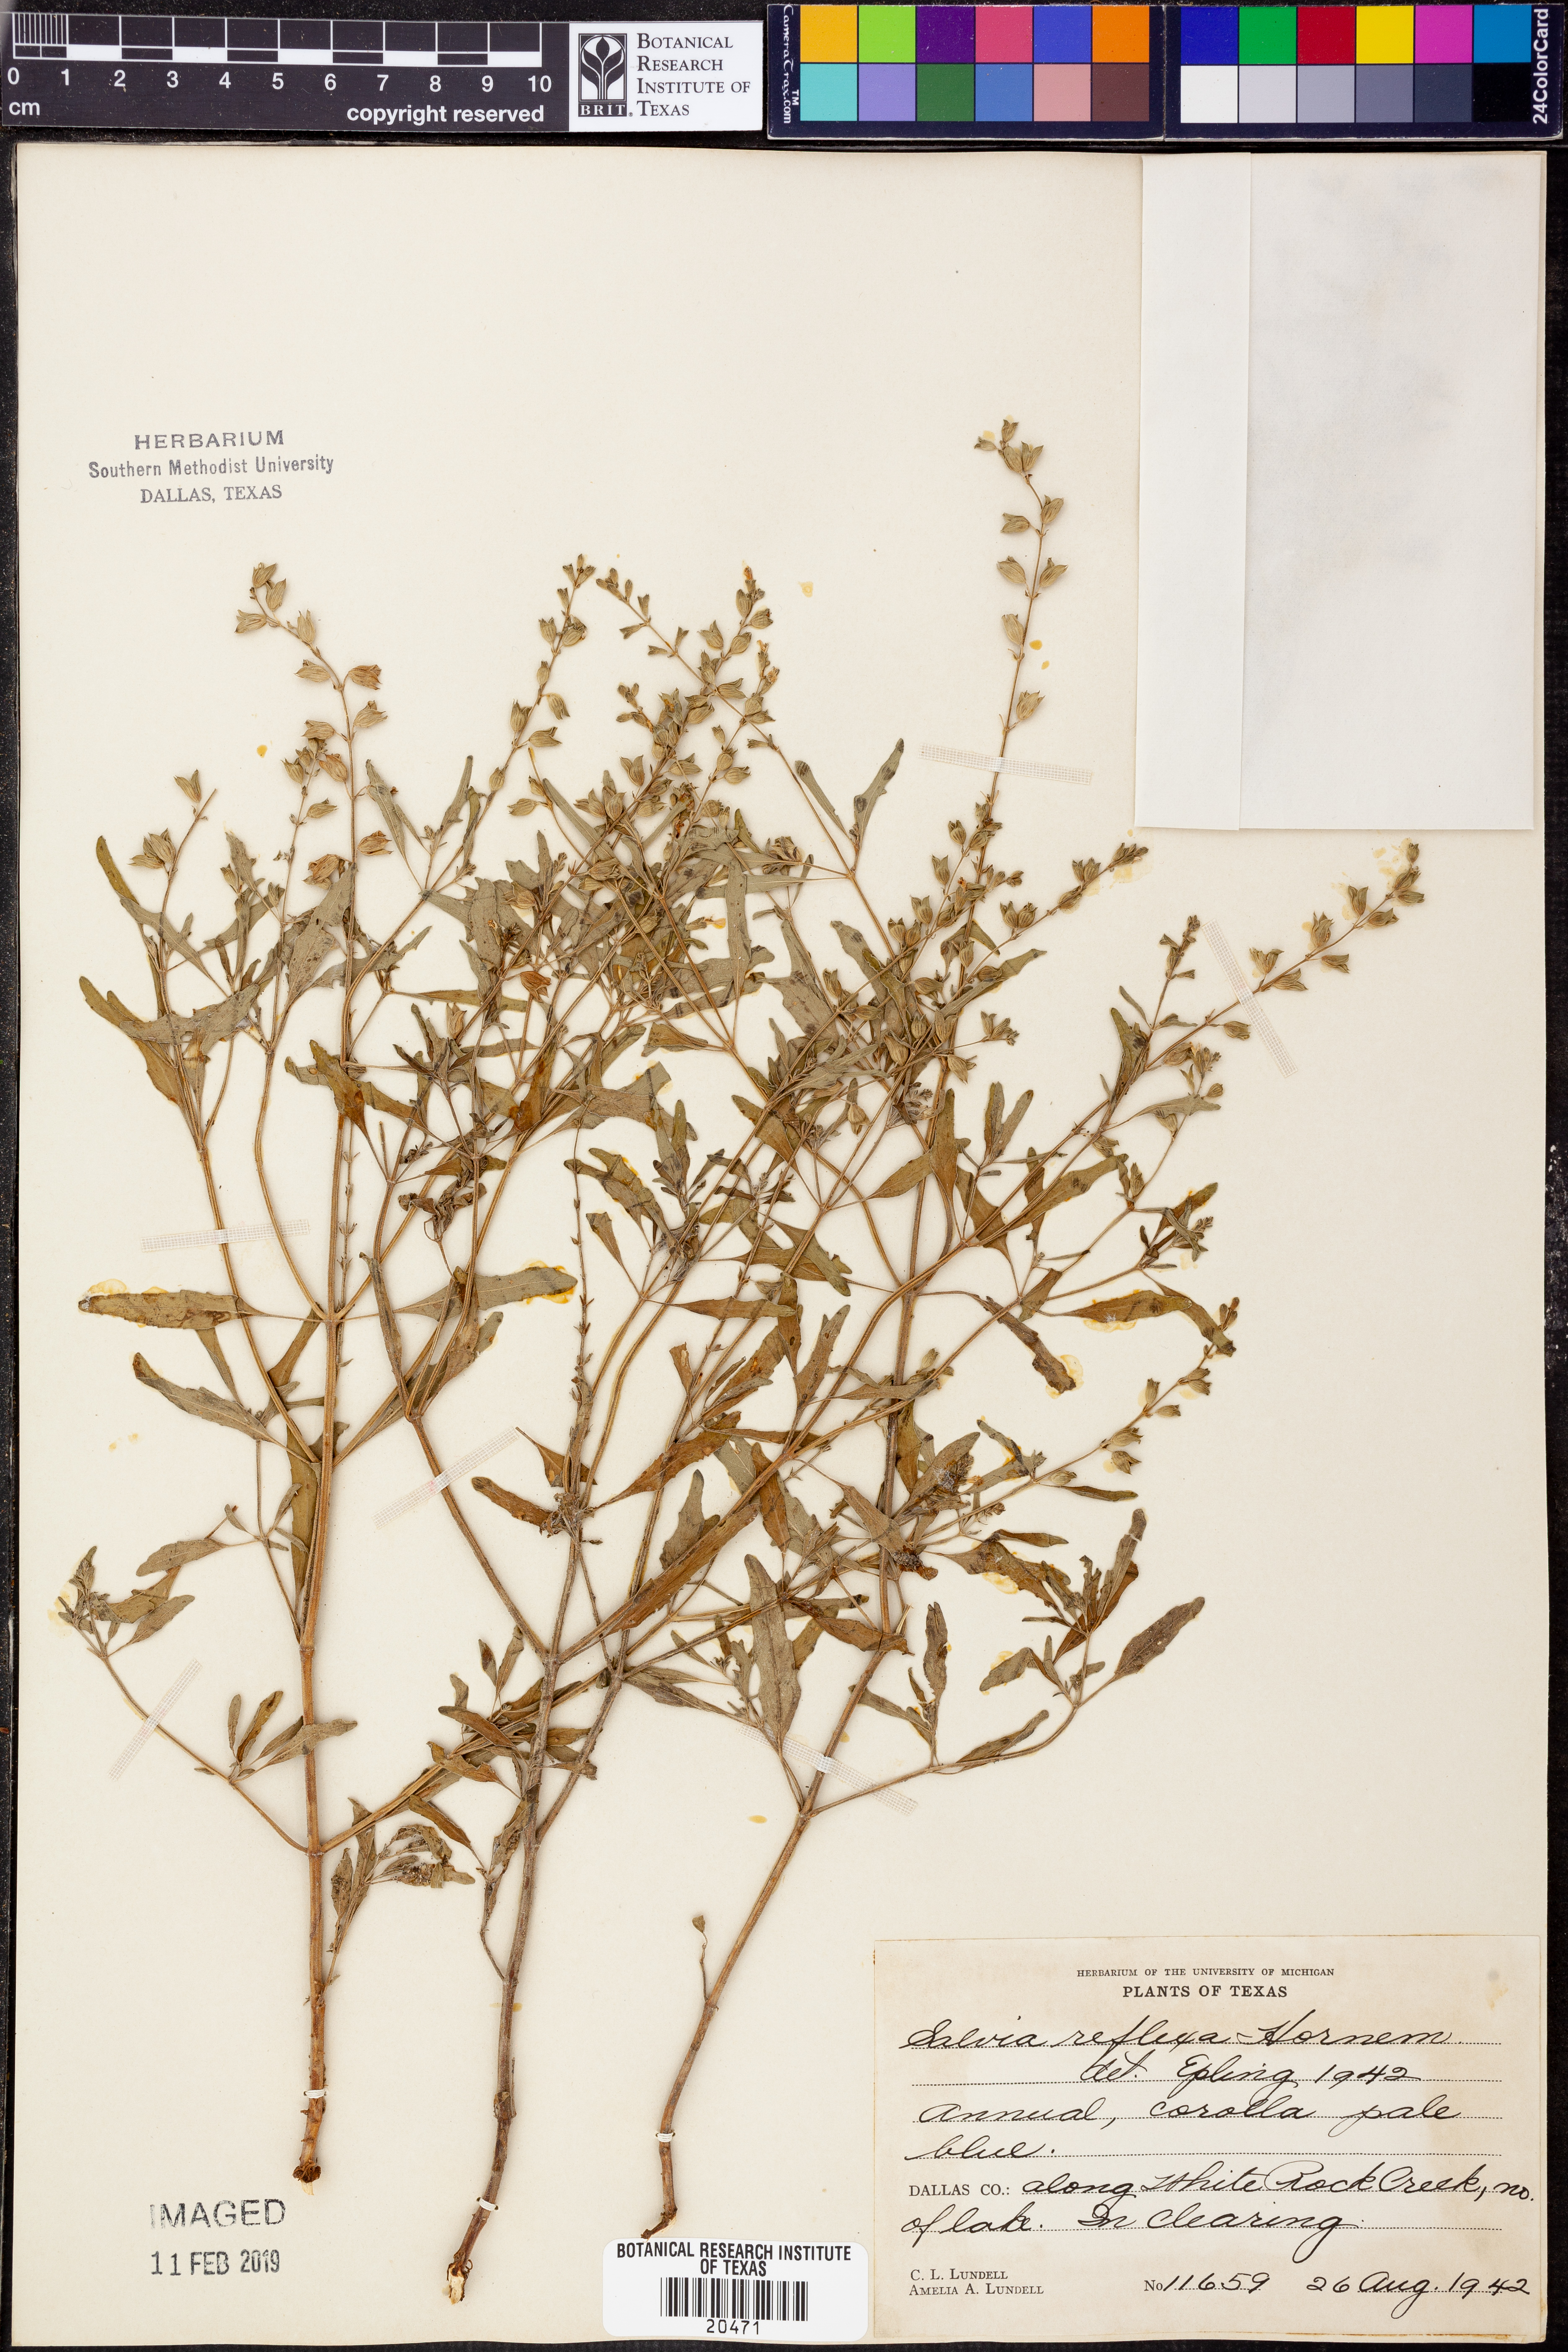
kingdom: Plantae
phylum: Tracheophyta
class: Magnoliopsida
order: Lamiales
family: Lamiaceae
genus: Salvia
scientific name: Salvia reflexa
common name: Mintweed
